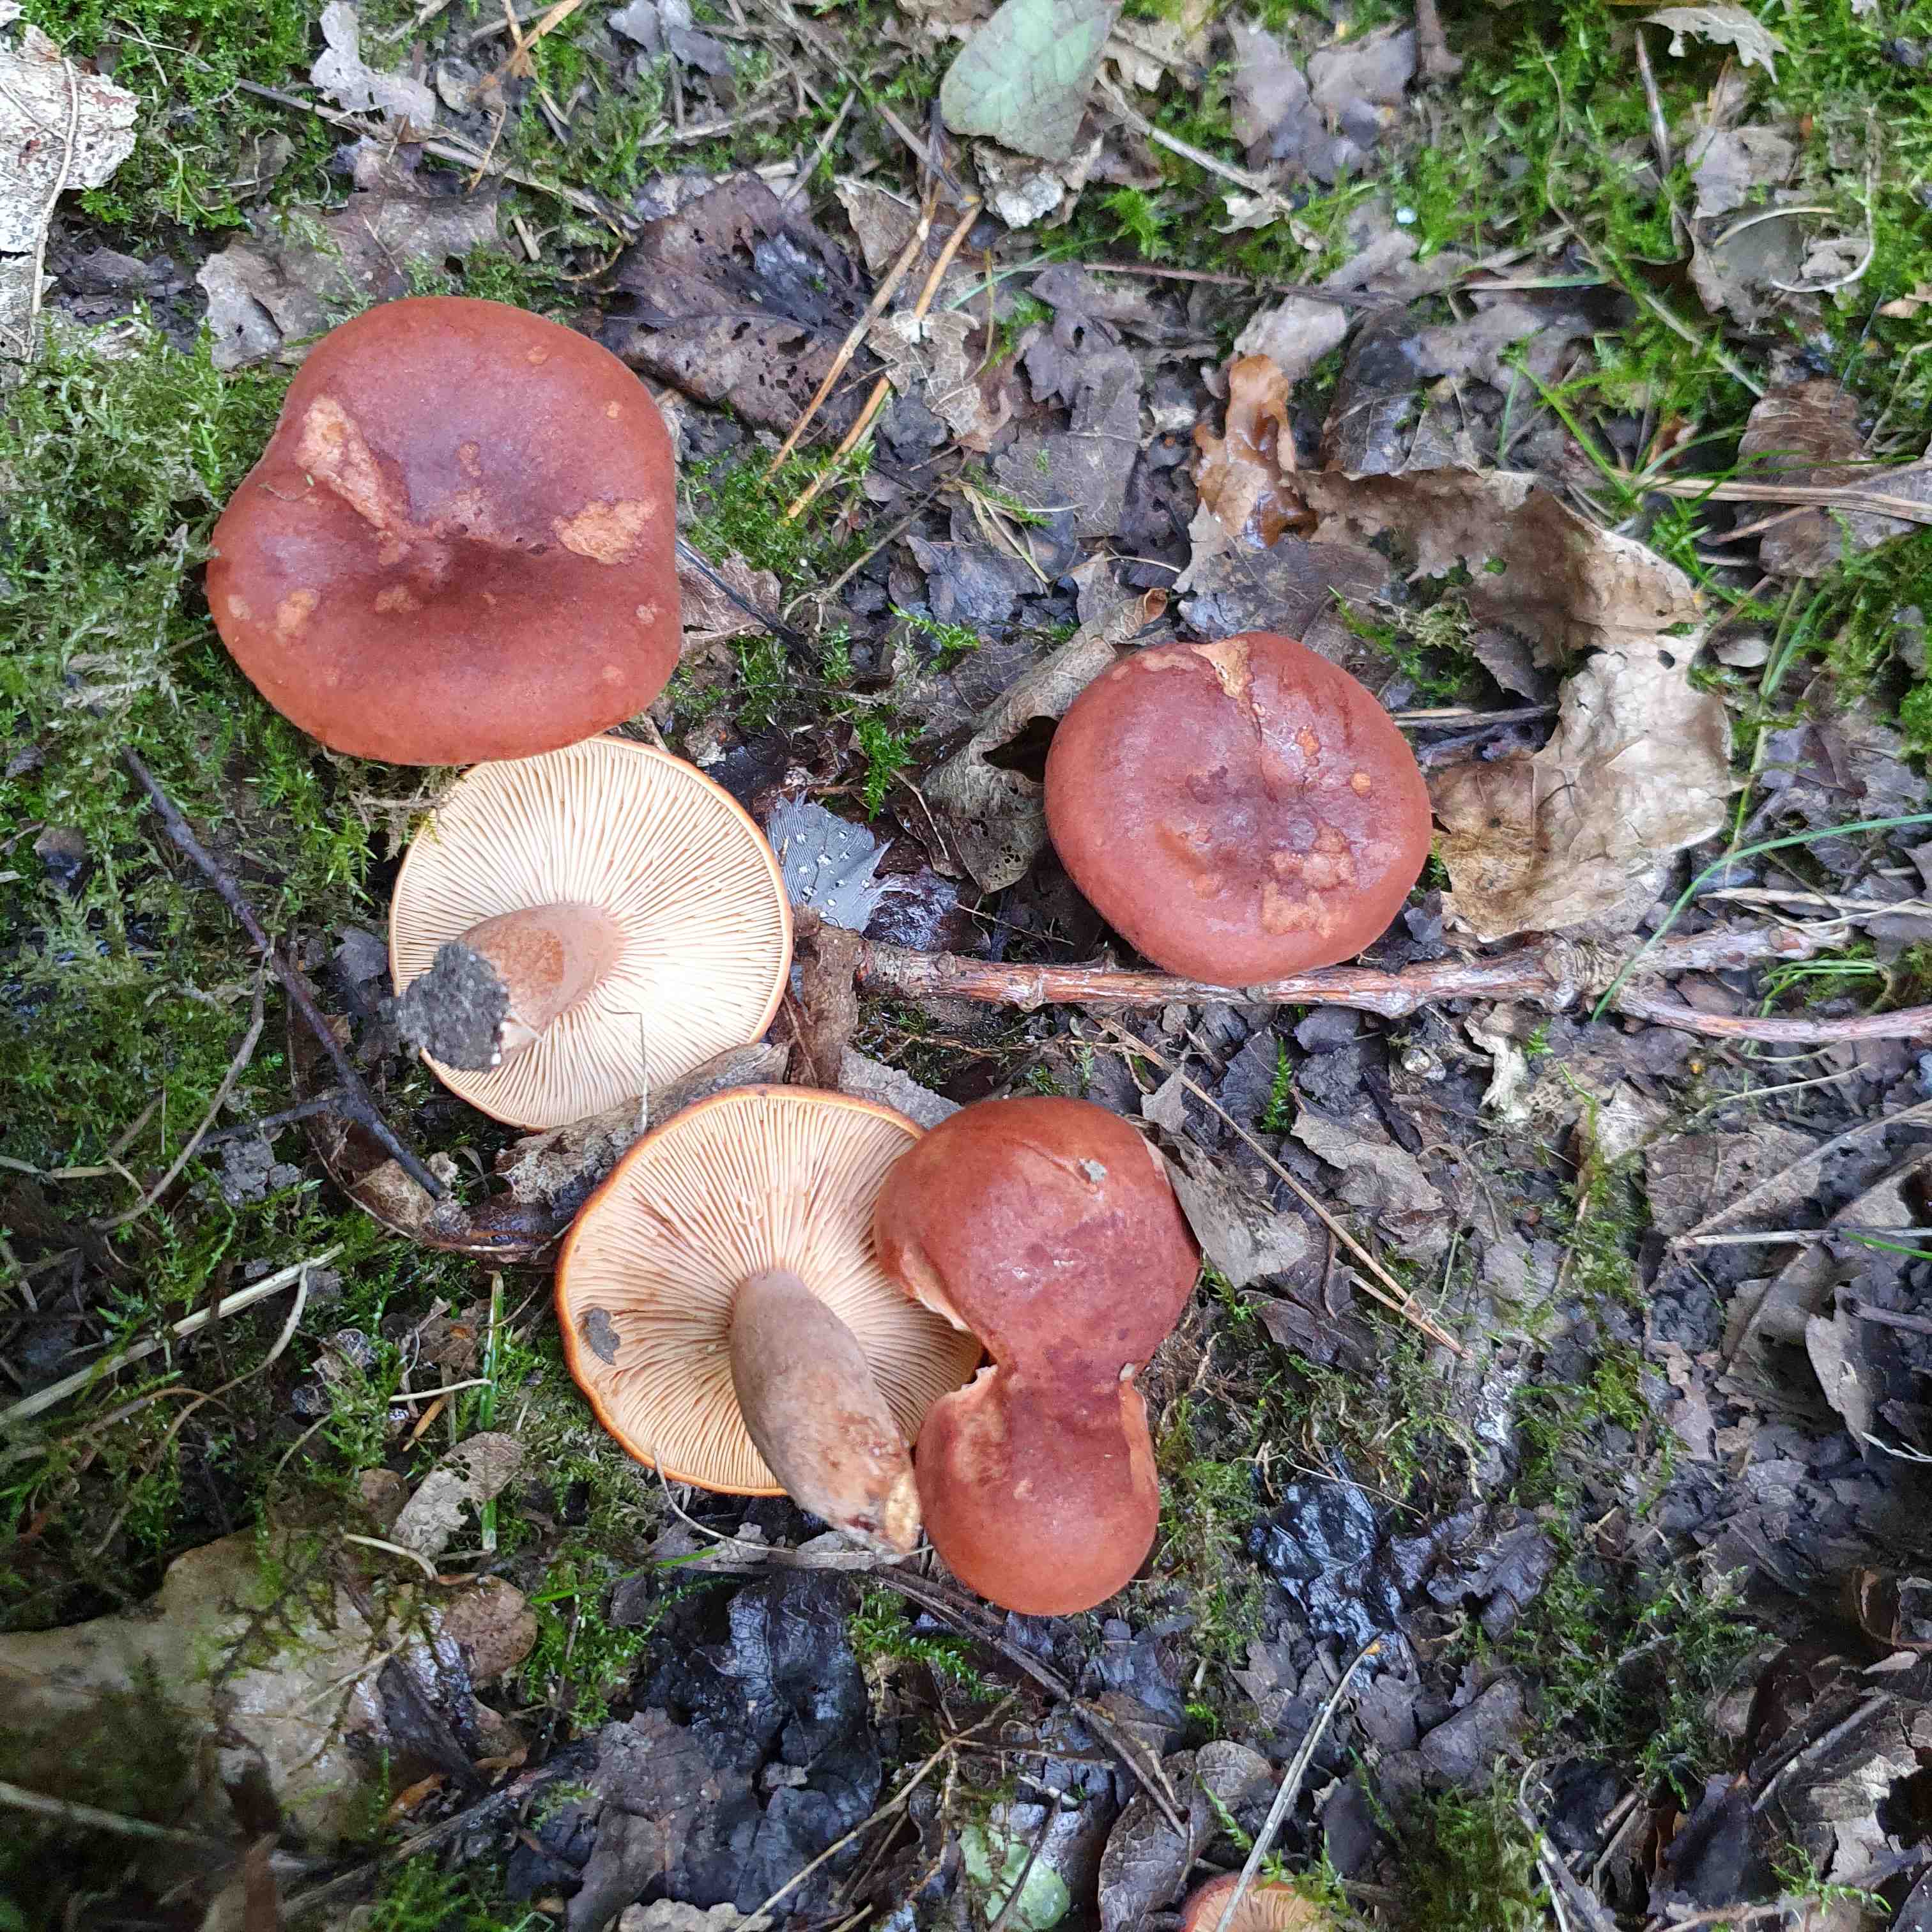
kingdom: Fungi
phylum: Basidiomycota
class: Agaricomycetes
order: Russulales
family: Russulaceae
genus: Lactarius
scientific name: Lactarius fulvissimus
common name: ræve-mælkehat
